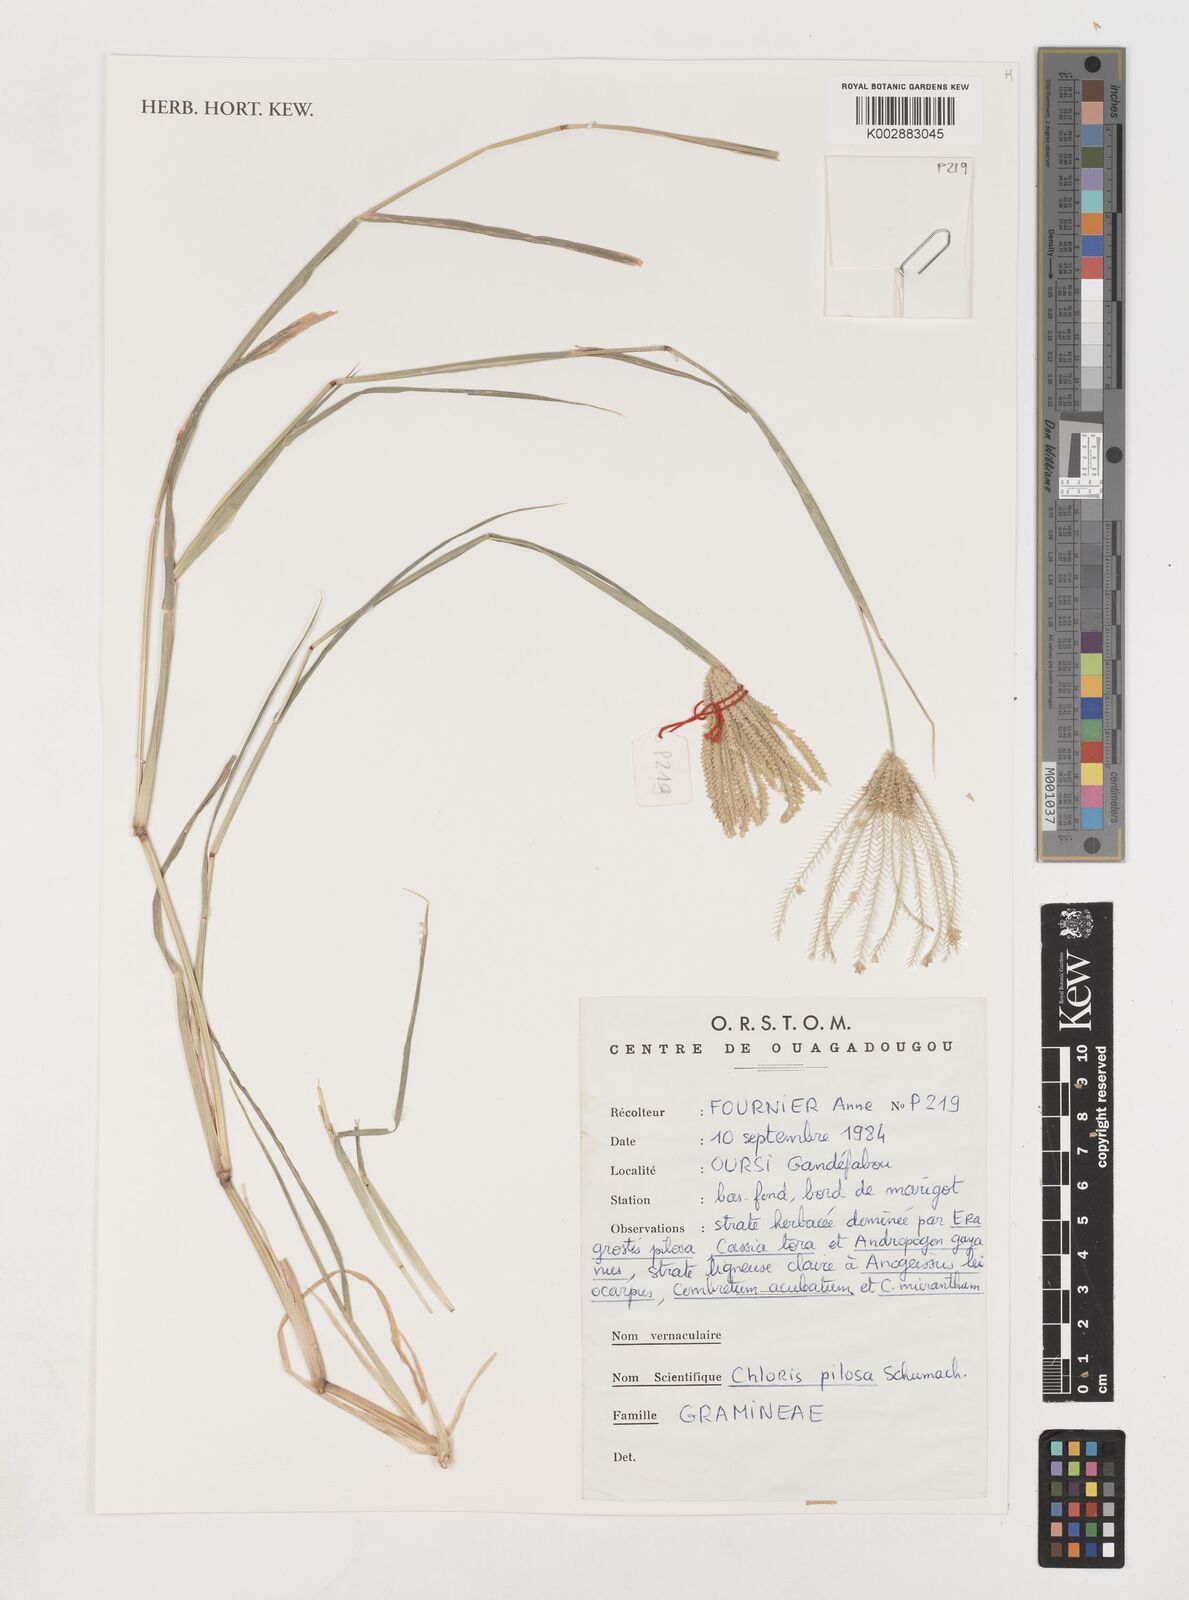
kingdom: Plantae
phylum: Tracheophyta
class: Liliopsida
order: Poales
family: Poaceae
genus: Chloris
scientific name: Chloris pilosa
